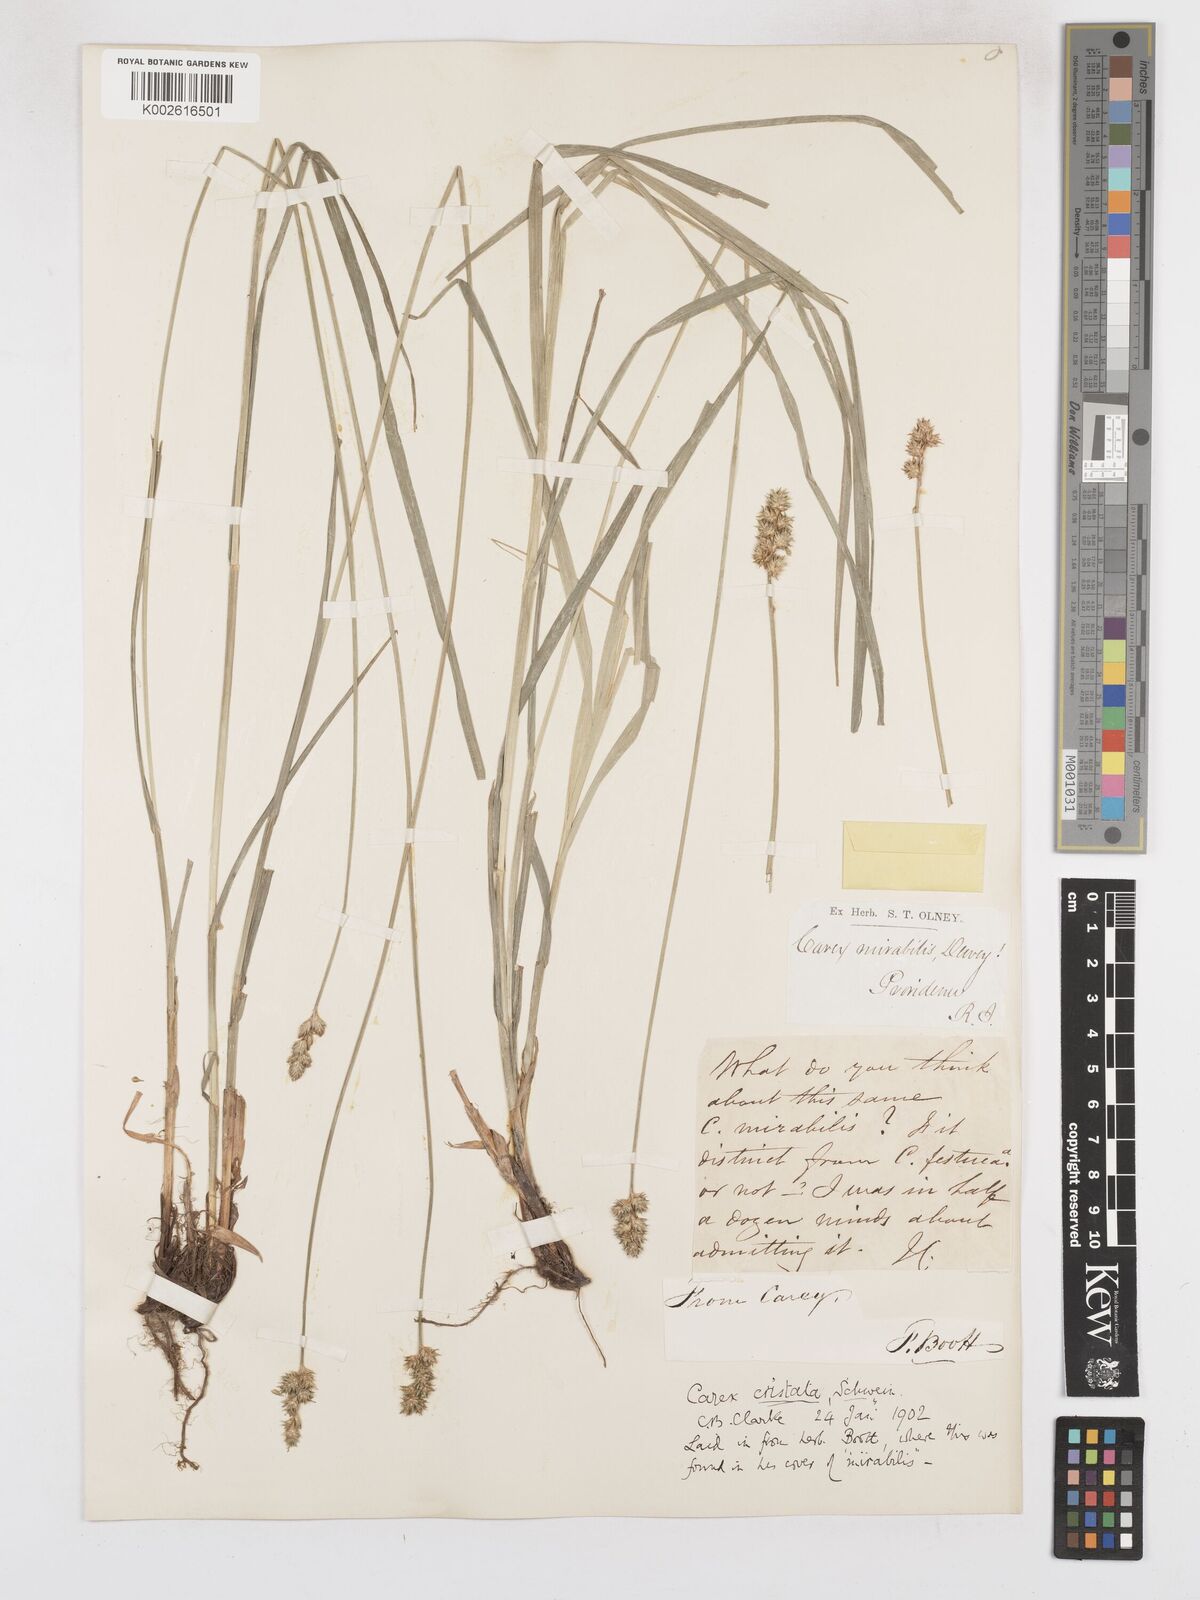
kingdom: Plantae
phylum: Tracheophyta
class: Liliopsida
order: Poales
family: Cyperaceae
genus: Carex
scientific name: Carex cristatella
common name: Crested oval sedge
